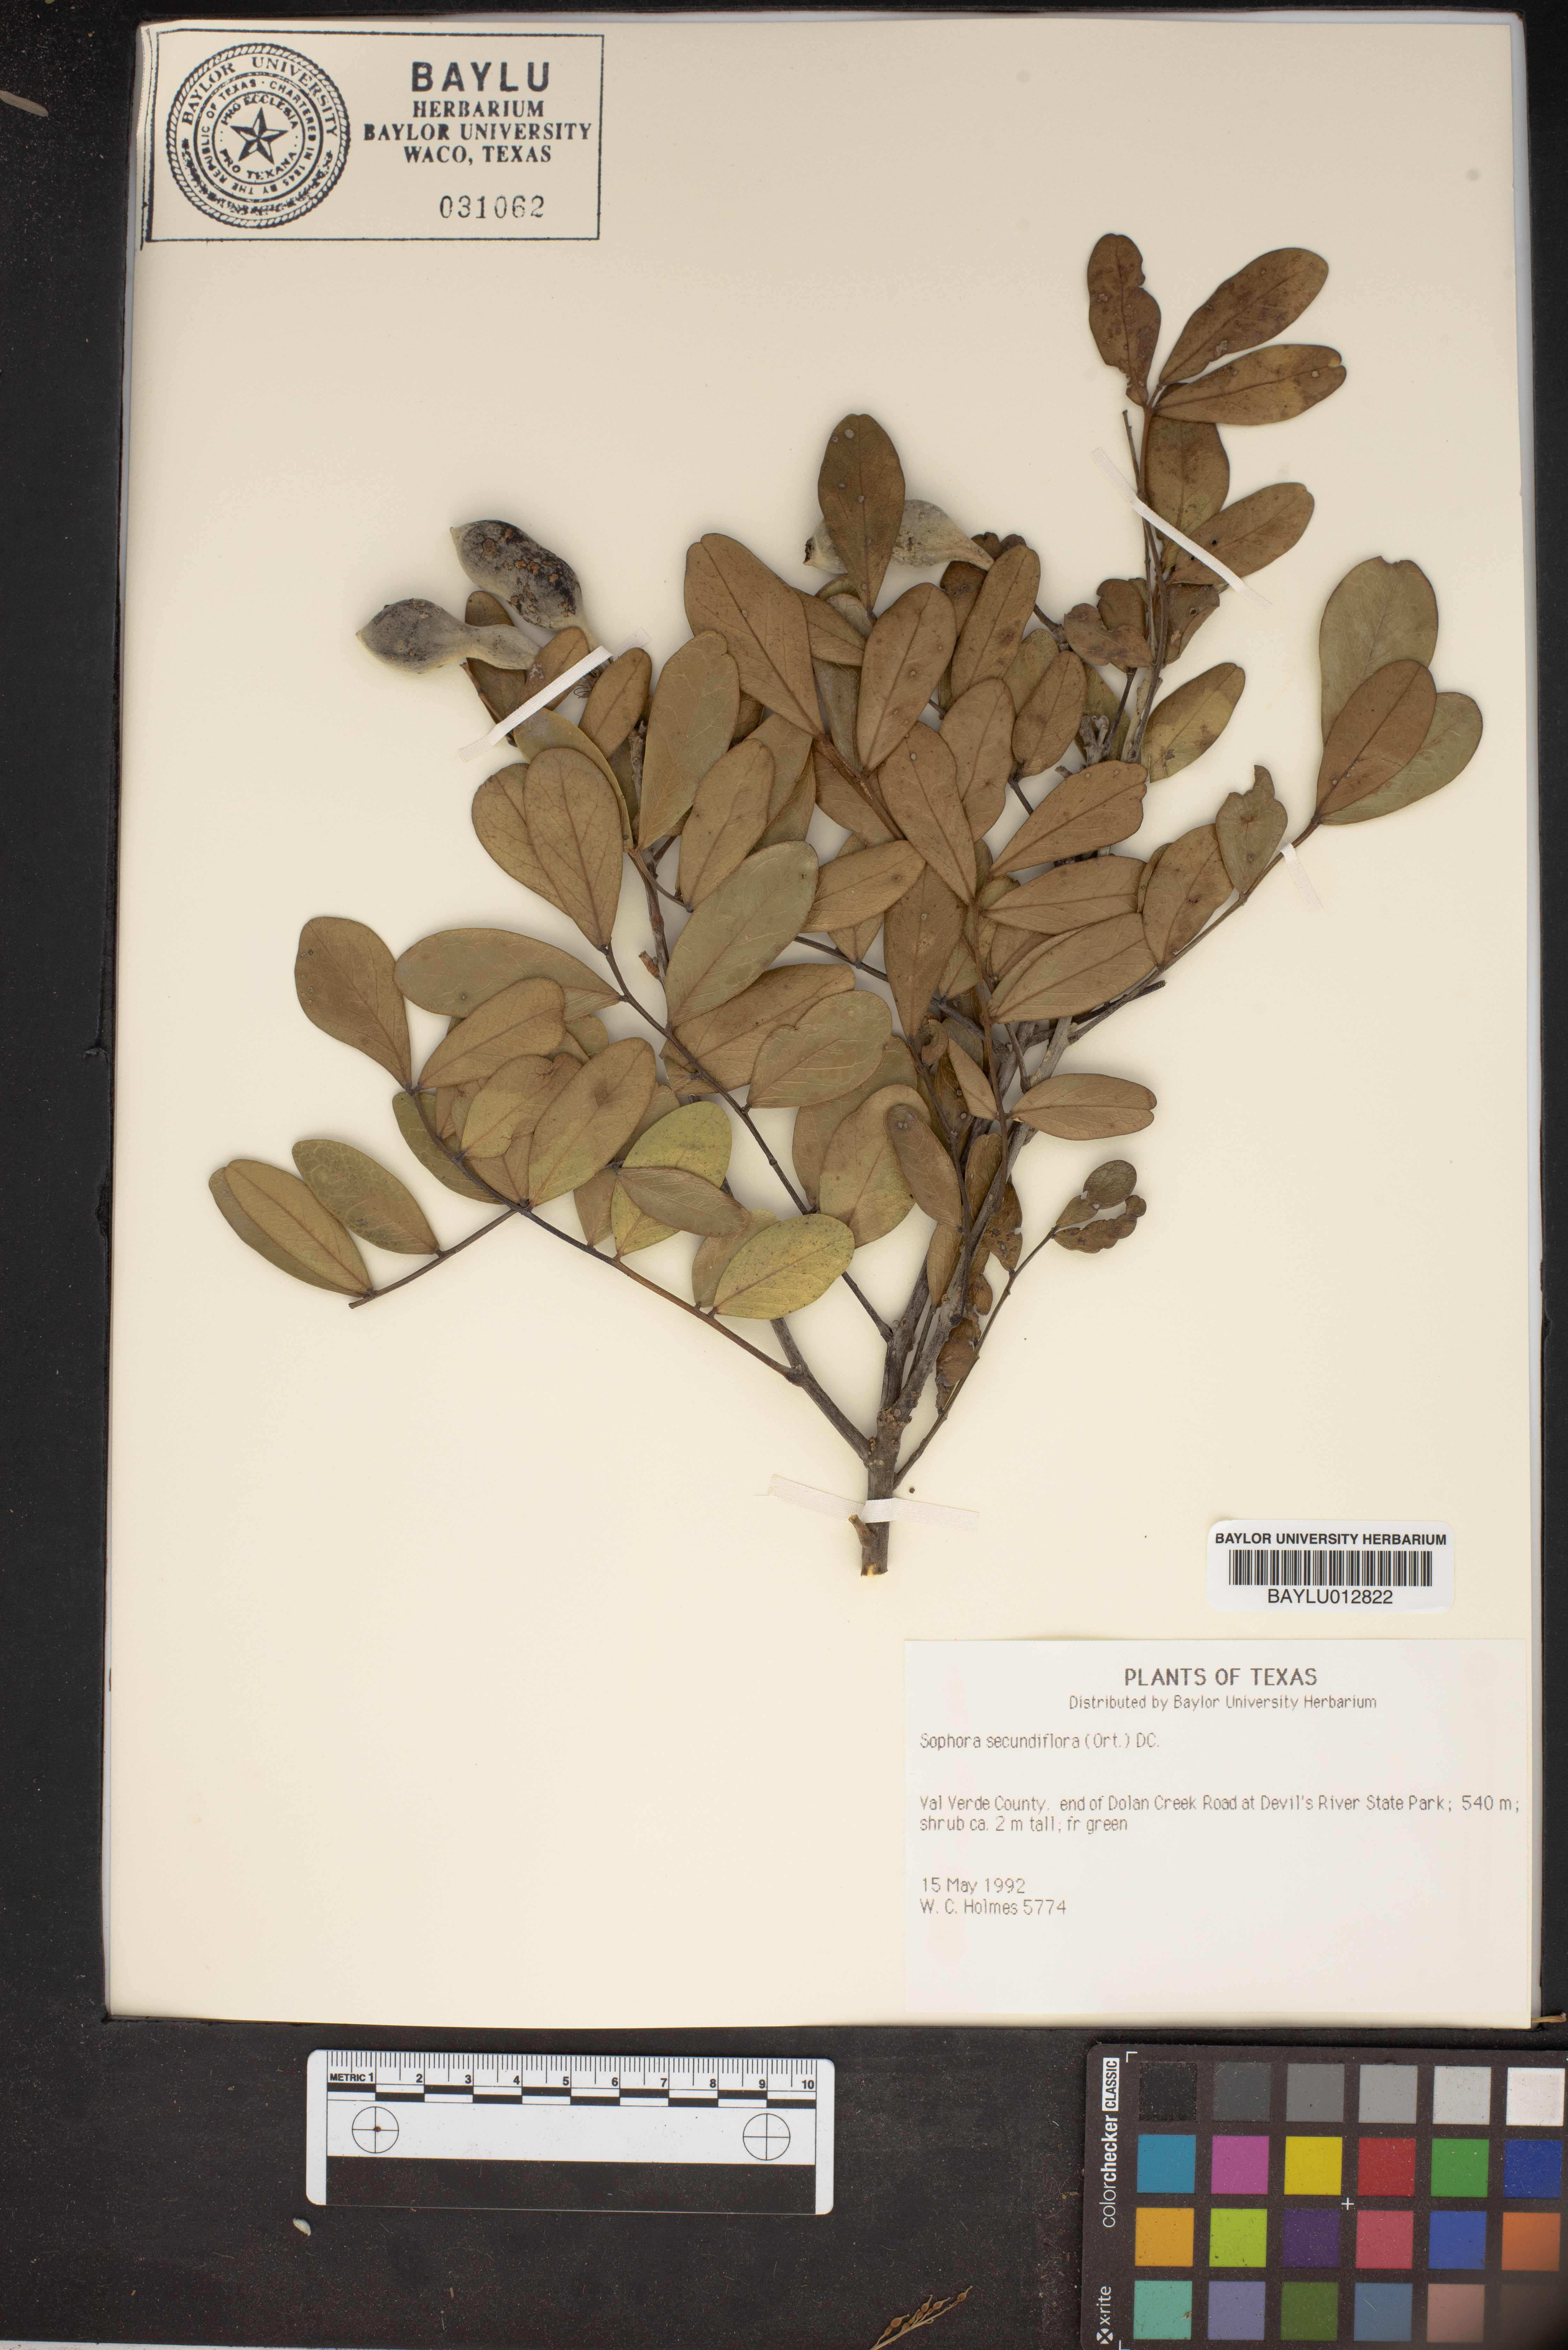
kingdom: Plantae
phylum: Tracheophyta
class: Magnoliopsida
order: Fabales
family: Fabaceae
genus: Dermatophyllum
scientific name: Dermatophyllum secundiflorum
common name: Texas-mountain-laurel
